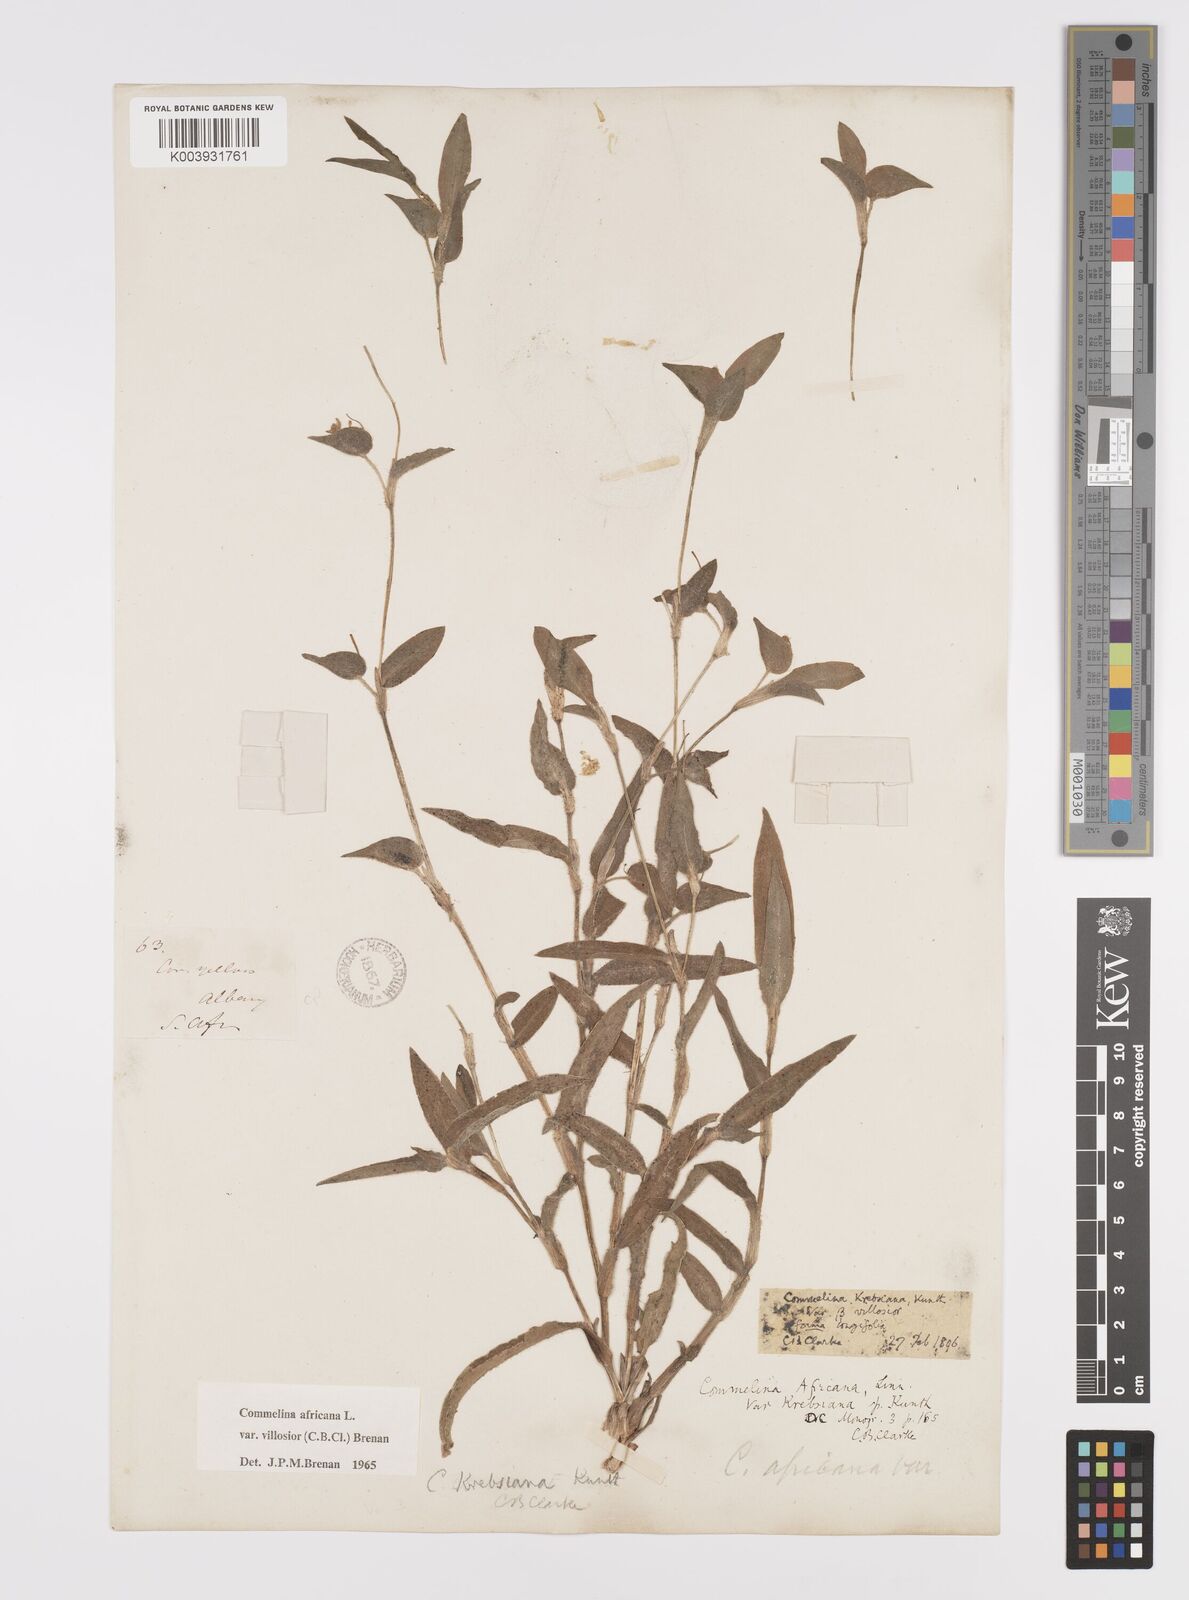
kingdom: Plantae
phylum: Tracheophyta
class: Liliopsida
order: Commelinales
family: Commelinaceae
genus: Commelina
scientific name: Commelina africana
